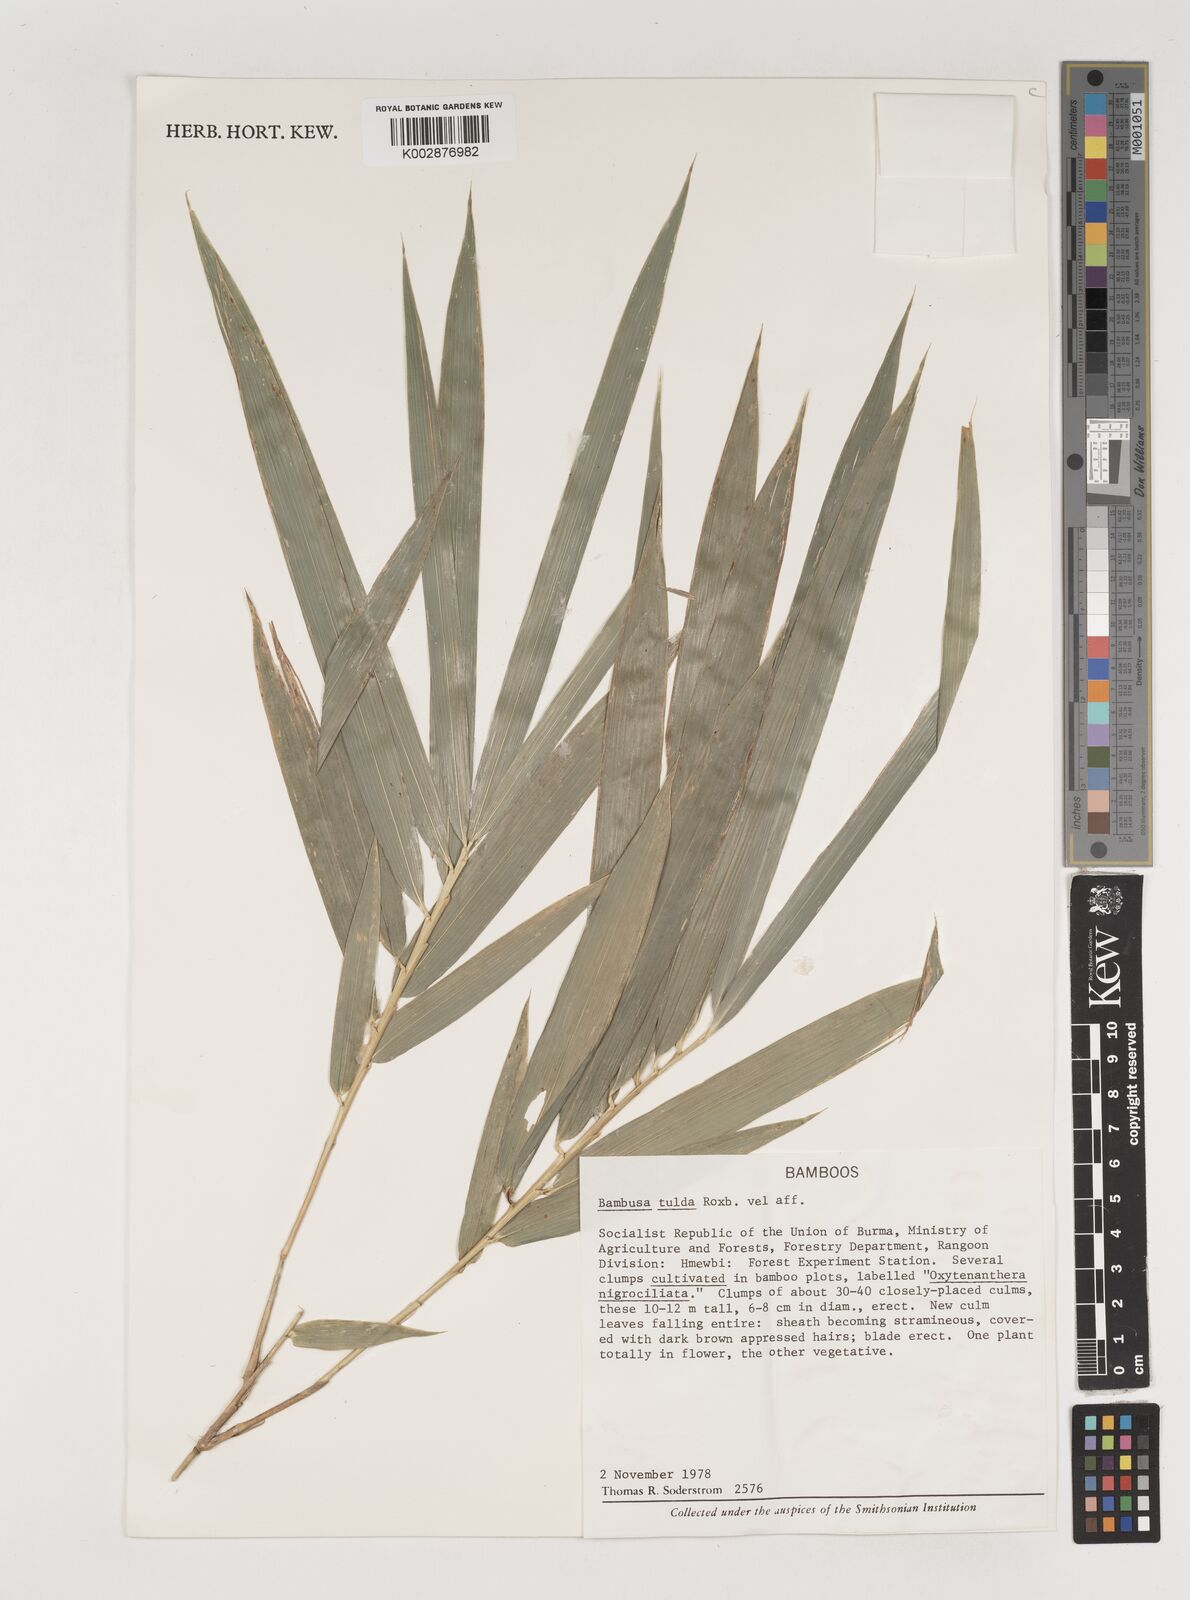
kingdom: Plantae
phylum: Tracheophyta
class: Liliopsida
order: Poales
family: Poaceae
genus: Bambusa
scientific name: Bambusa tulda
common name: Bengal bamboo
